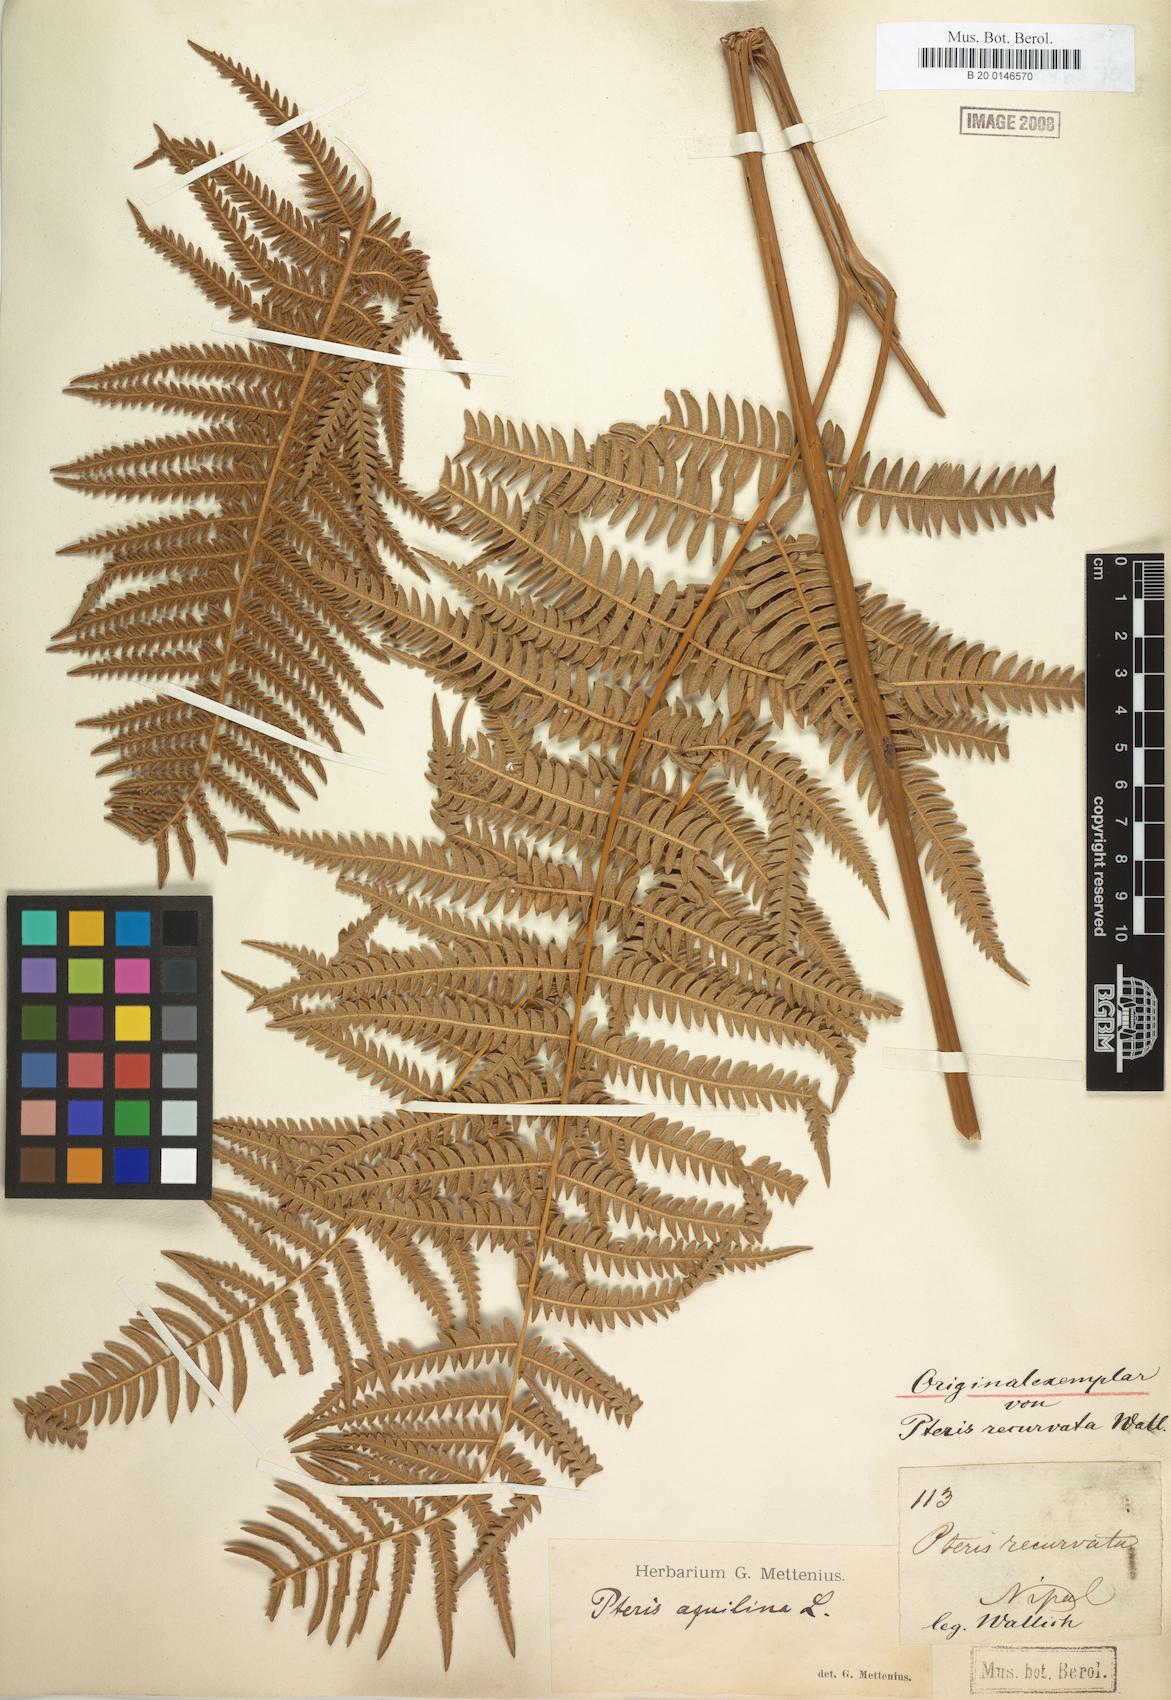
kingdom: Plantae
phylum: Tracheophyta
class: Polypodiopsida
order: Polypodiales
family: Dennstaedtiaceae
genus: Pteridium
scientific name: Pteridium aquilinum
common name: Bracken
